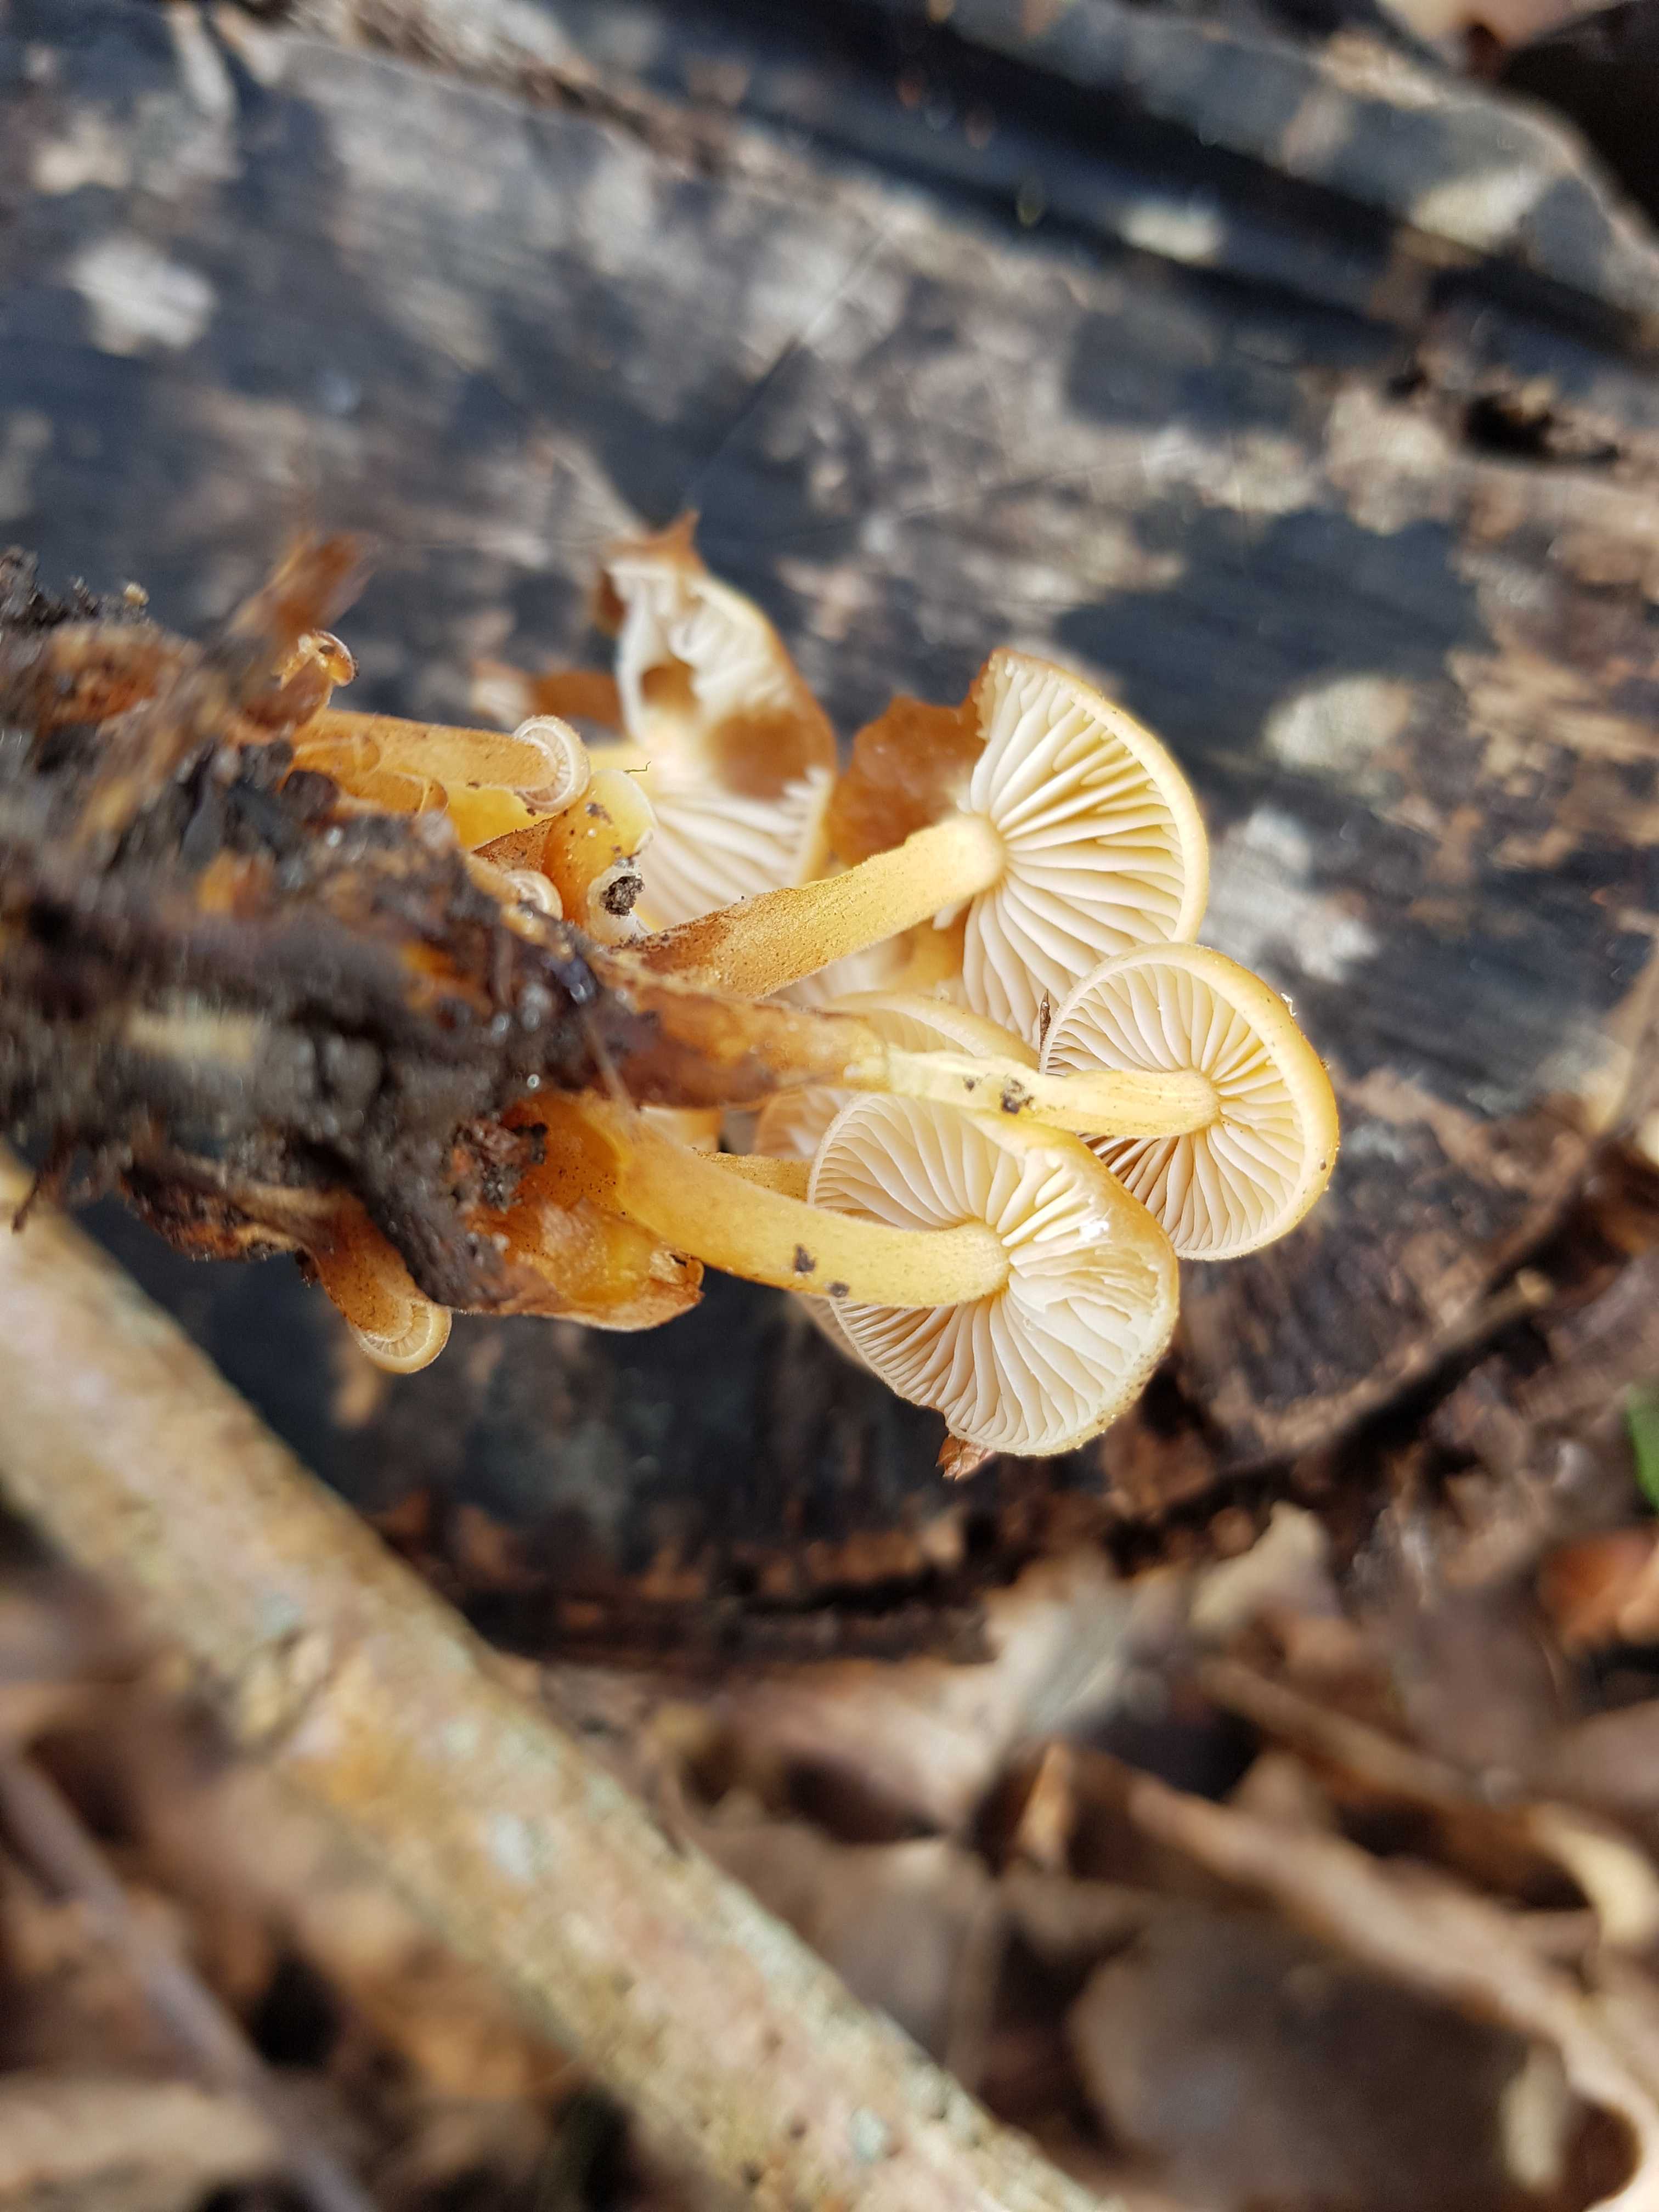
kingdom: Fungi
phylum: Basidiomycota
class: Agaricomycetes
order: Agaricales
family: Physalacriaceae
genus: Flammulina
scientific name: Flammulina velutipes
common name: gul fløjlsfod
